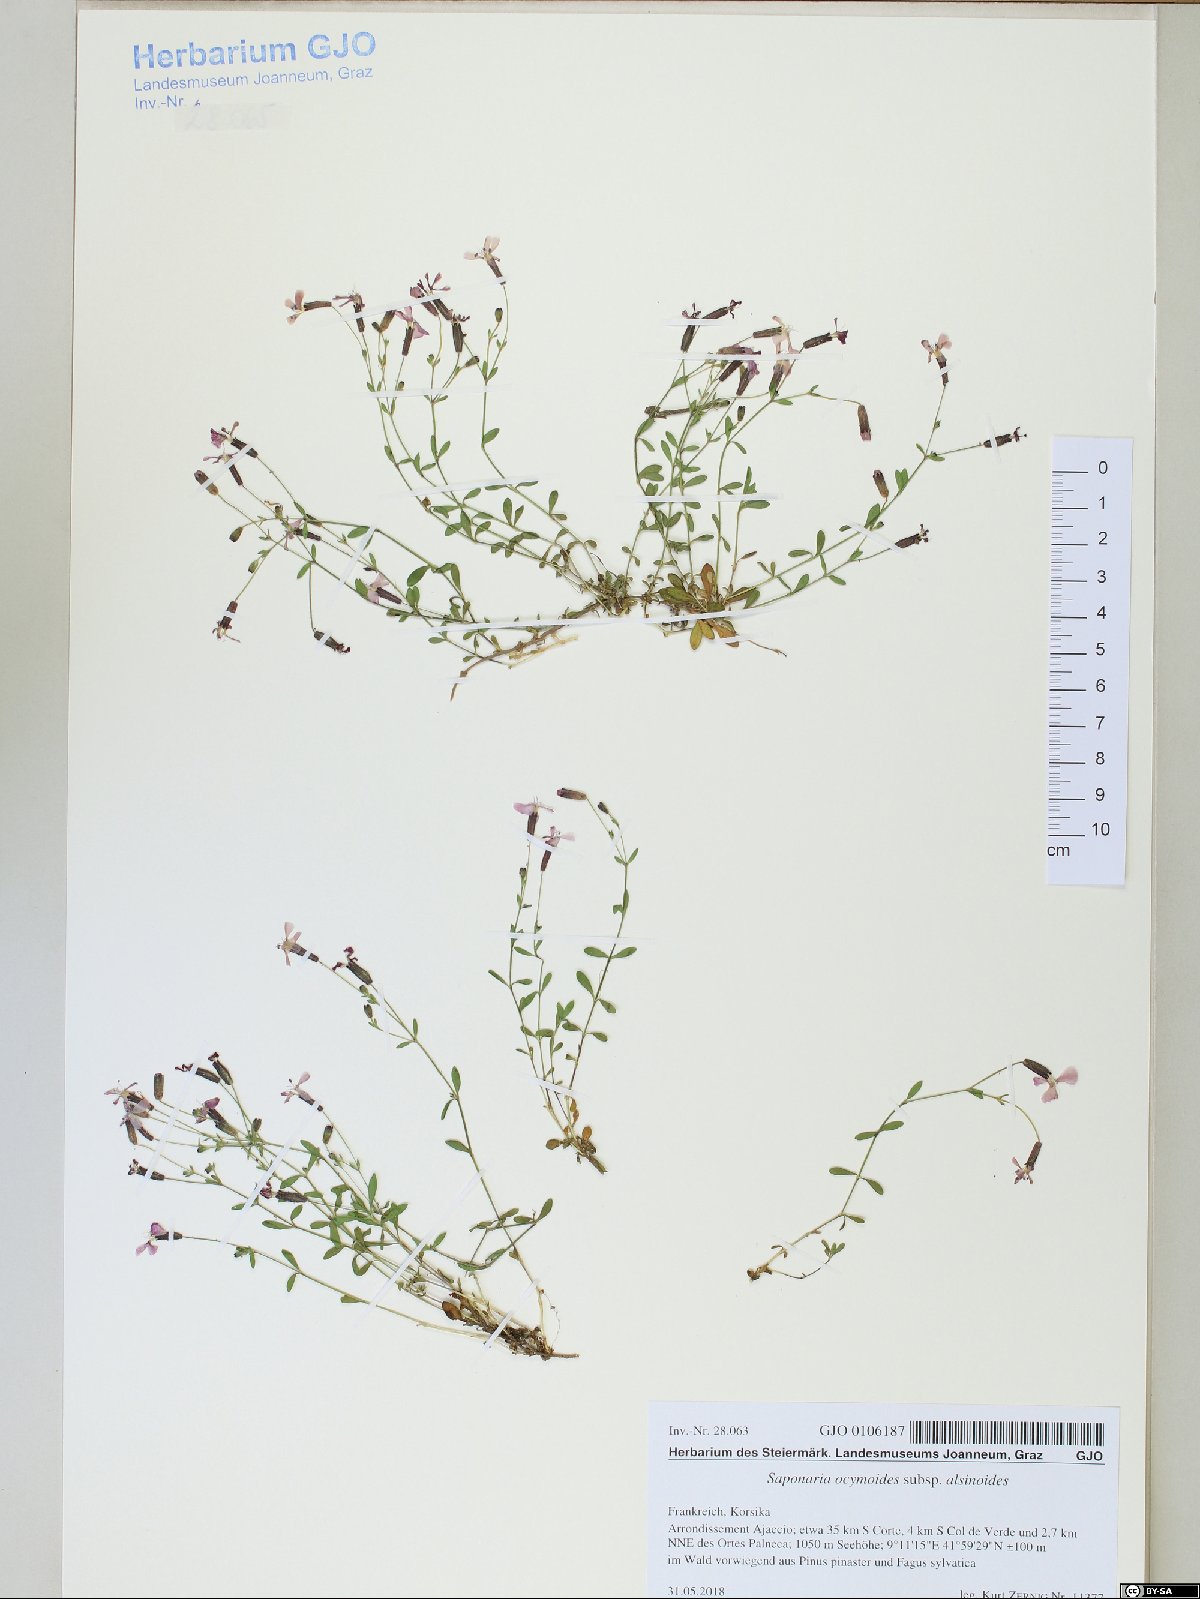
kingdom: Plantae
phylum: Tracheophyta
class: Magnoliopsida
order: Caryophyllales
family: Caryophyllaceae
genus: Saponaria
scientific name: Saponaria ocymoides
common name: Rock soapwort
